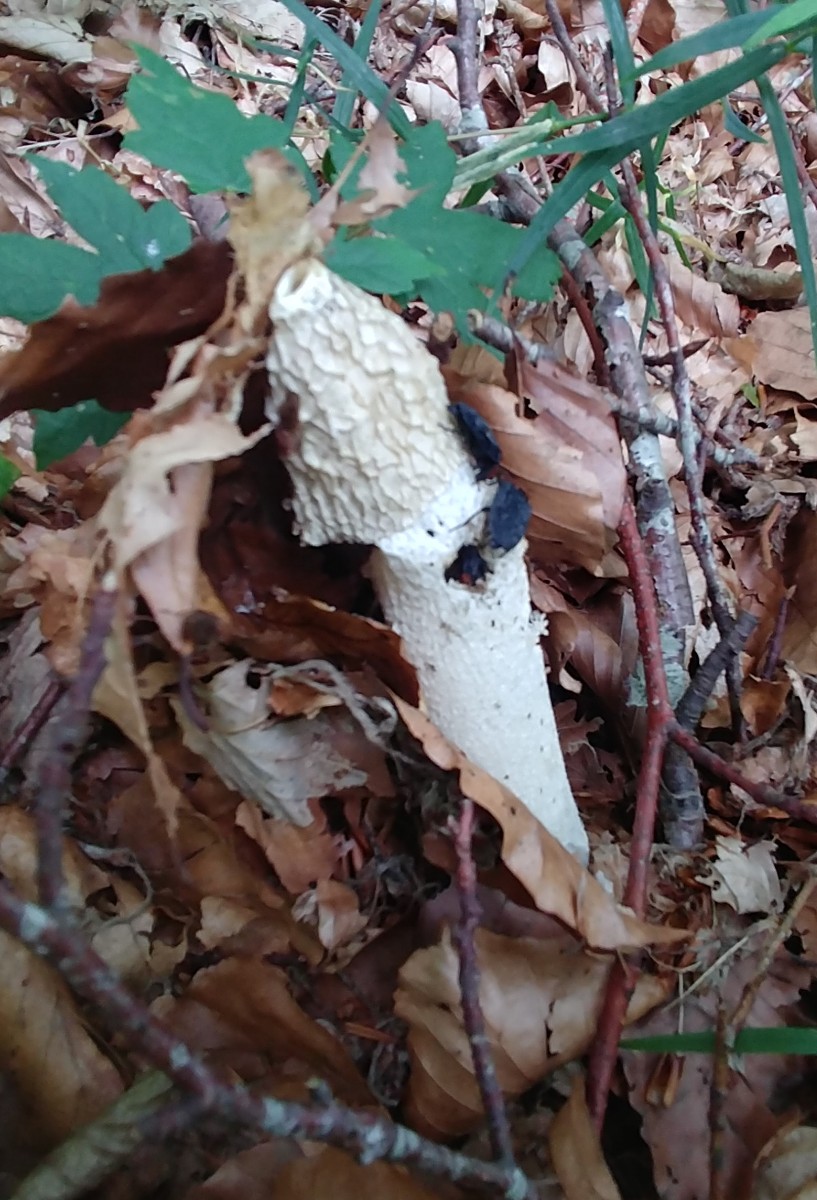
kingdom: Fungi
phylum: Basidiomycota
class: Agaricomycetes
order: Phallales
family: Phallaceae
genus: Phallus
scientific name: Phallus impudicus
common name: almindelig stinksvamp
